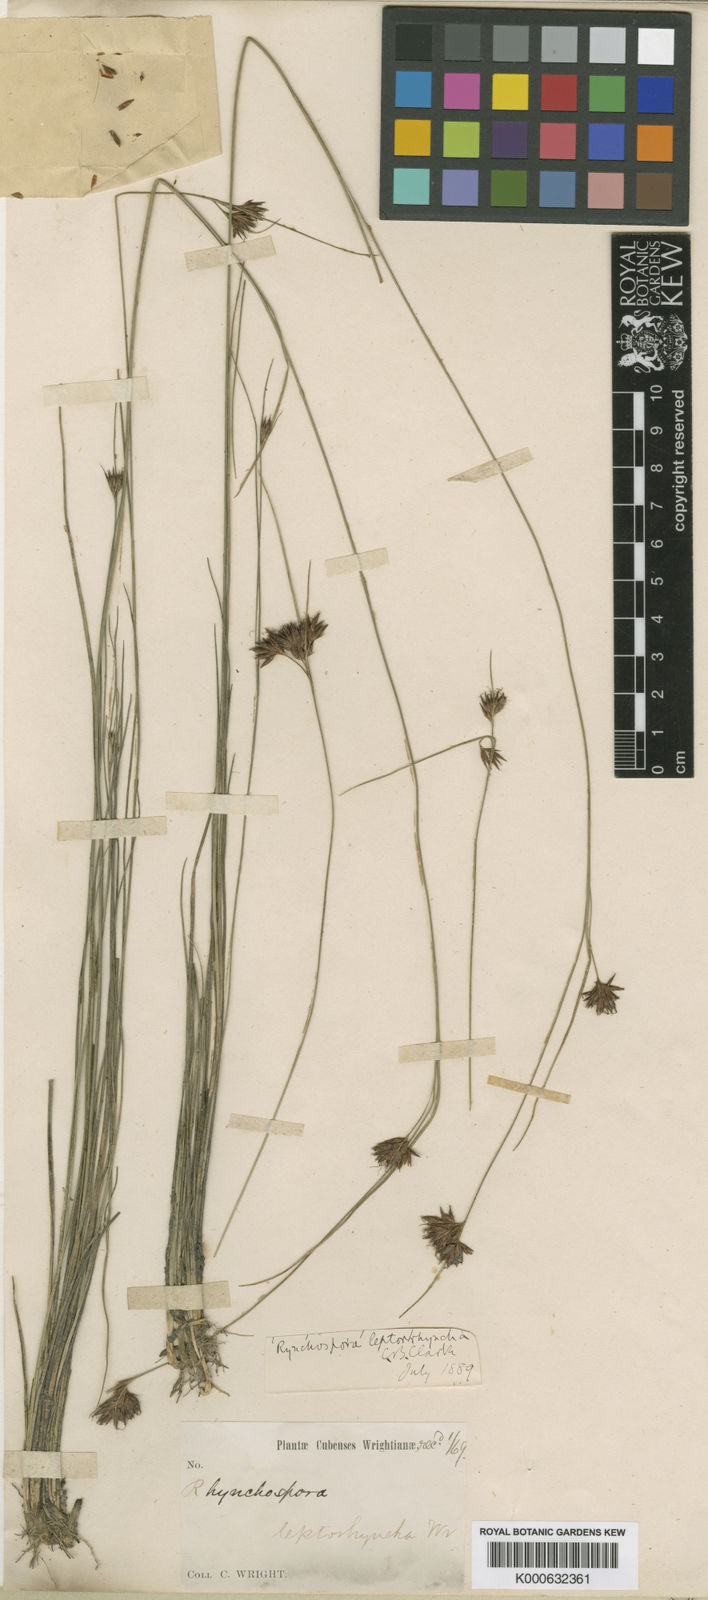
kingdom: Plantae
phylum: Tracheophyta
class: Liliopsida
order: Poales
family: Cyperaceae
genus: Rhynchospora
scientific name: Rhynchospora filifolia
